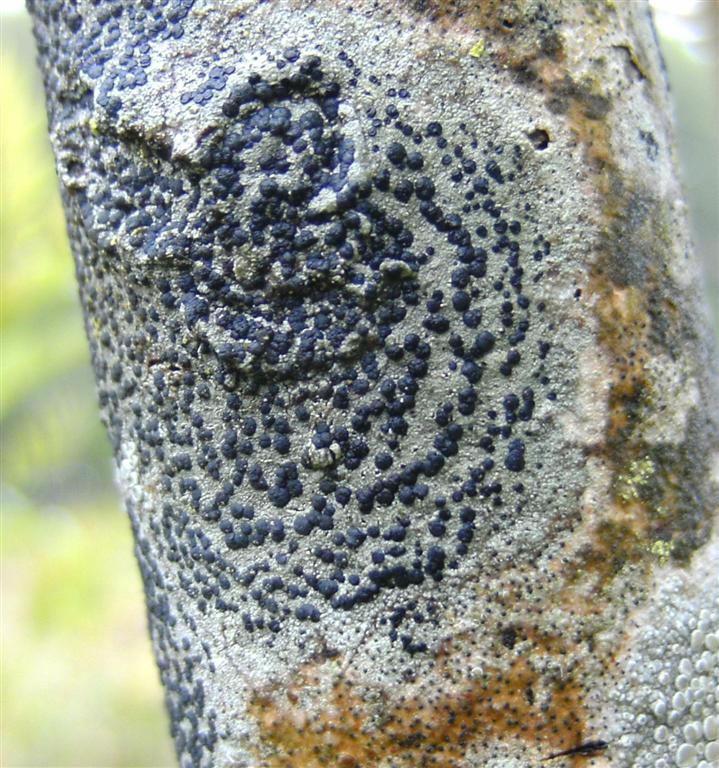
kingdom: Fungi
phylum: Ascomycota
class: Lecanoromycetes
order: Lecanorales
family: Lecanoraceae
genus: Lecidella
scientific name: Lecidella elaeochroma
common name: grågrøn skivelav
